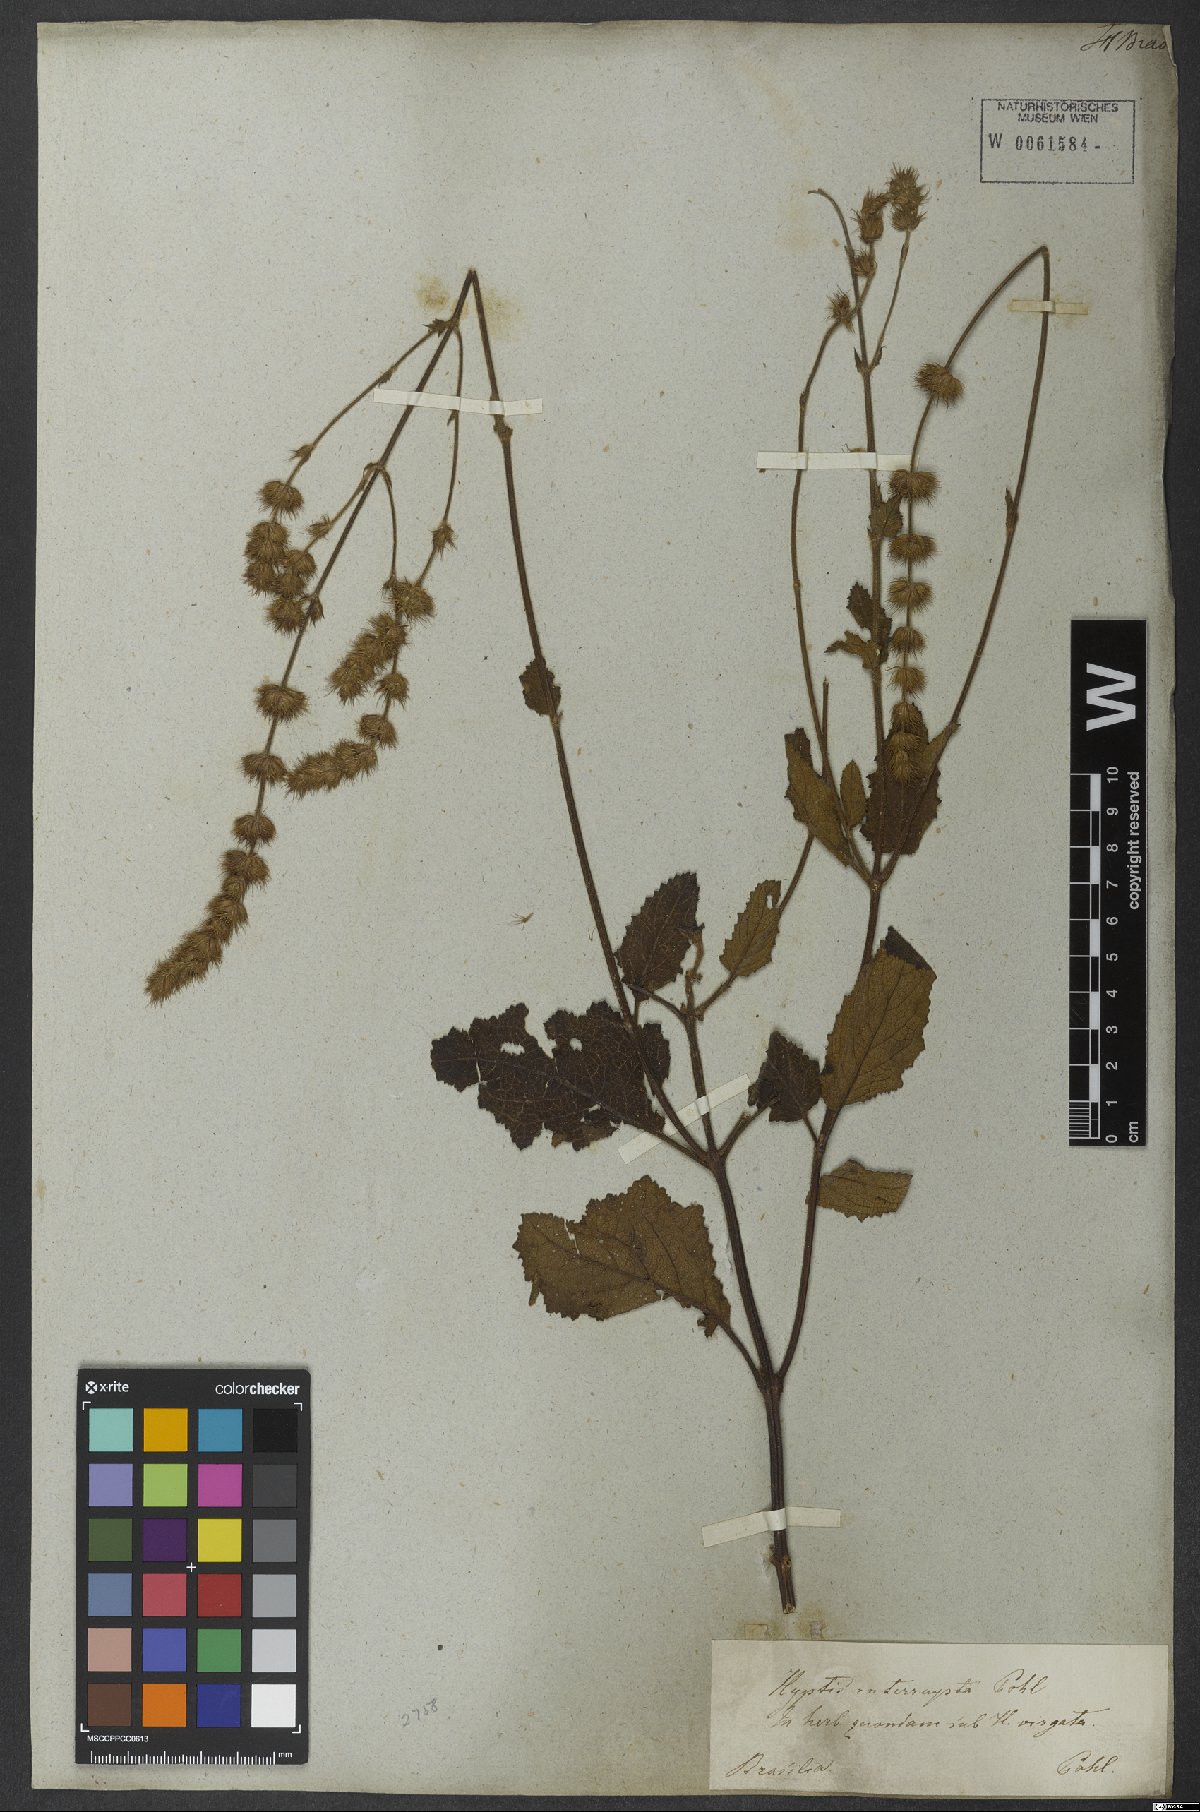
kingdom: Plantae
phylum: Tracheophyta
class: Magnoliopsida
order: Lamiales
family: Lamiaceae
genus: Gymneia
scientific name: Gymneia interrupta
